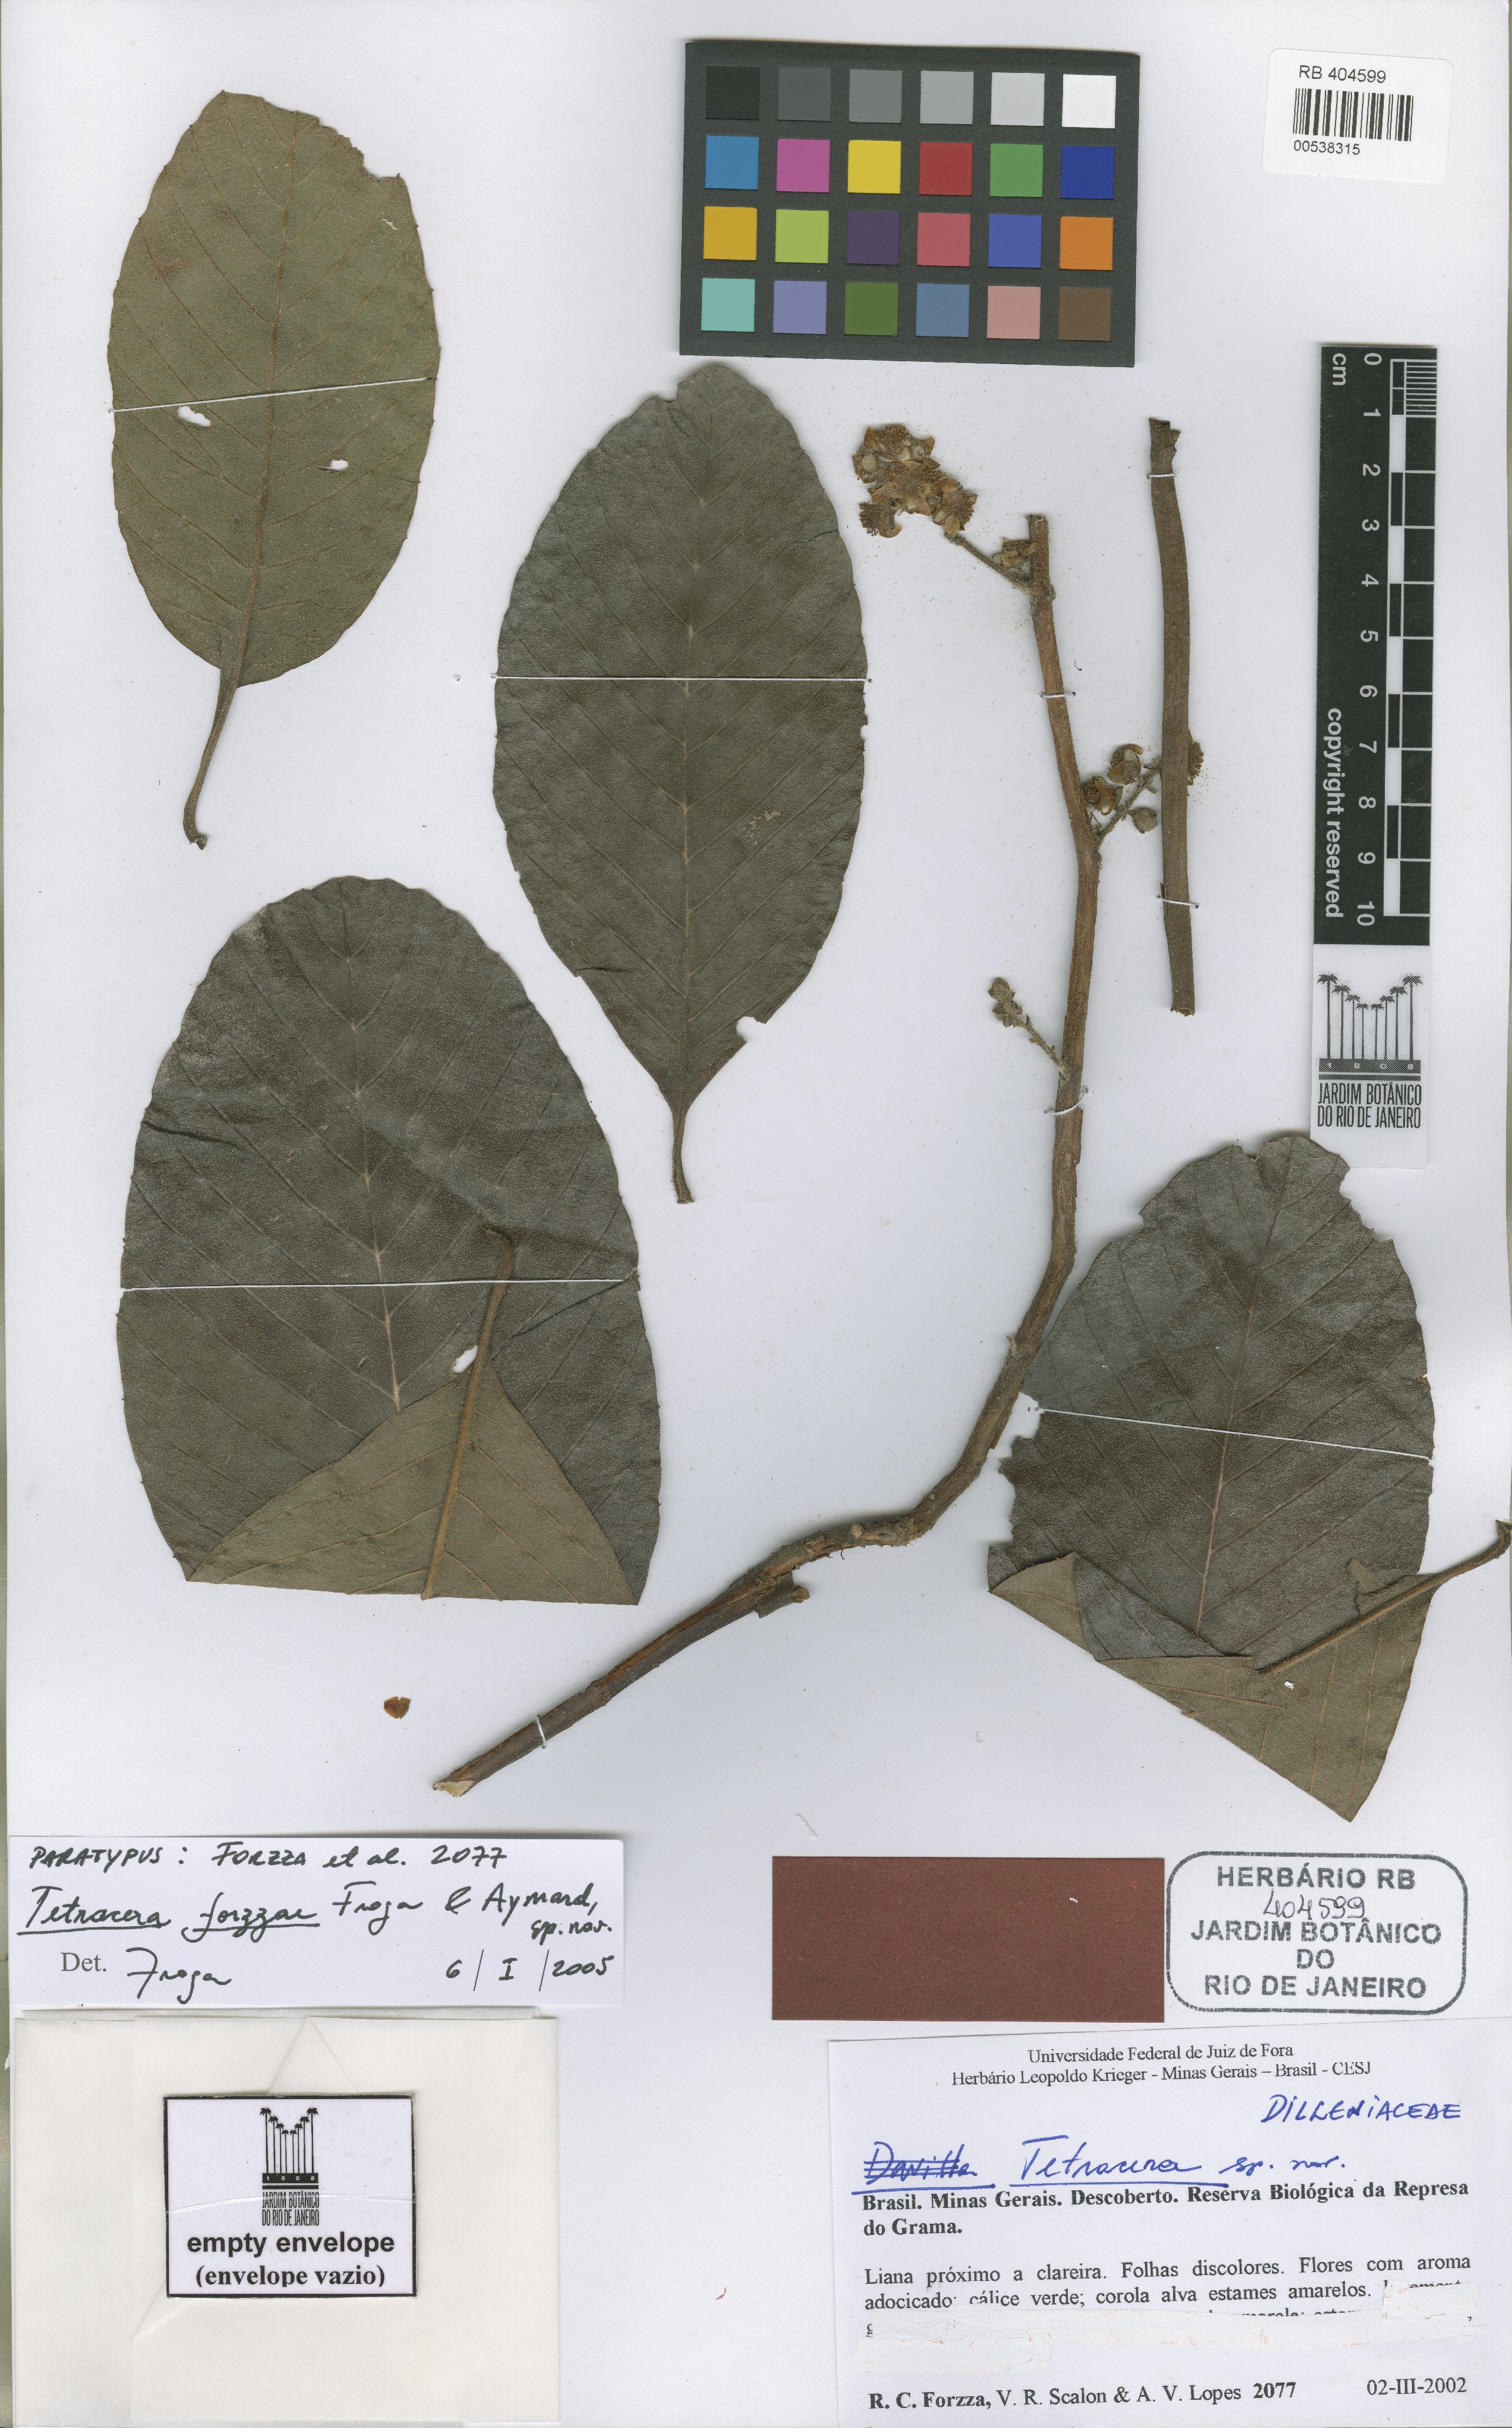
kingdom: Plantae
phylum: Tracheophyta
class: Magnoliopsida
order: Dilleniales
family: Dilleniaceae
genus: Tetracera
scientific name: Tetracera forzzae
